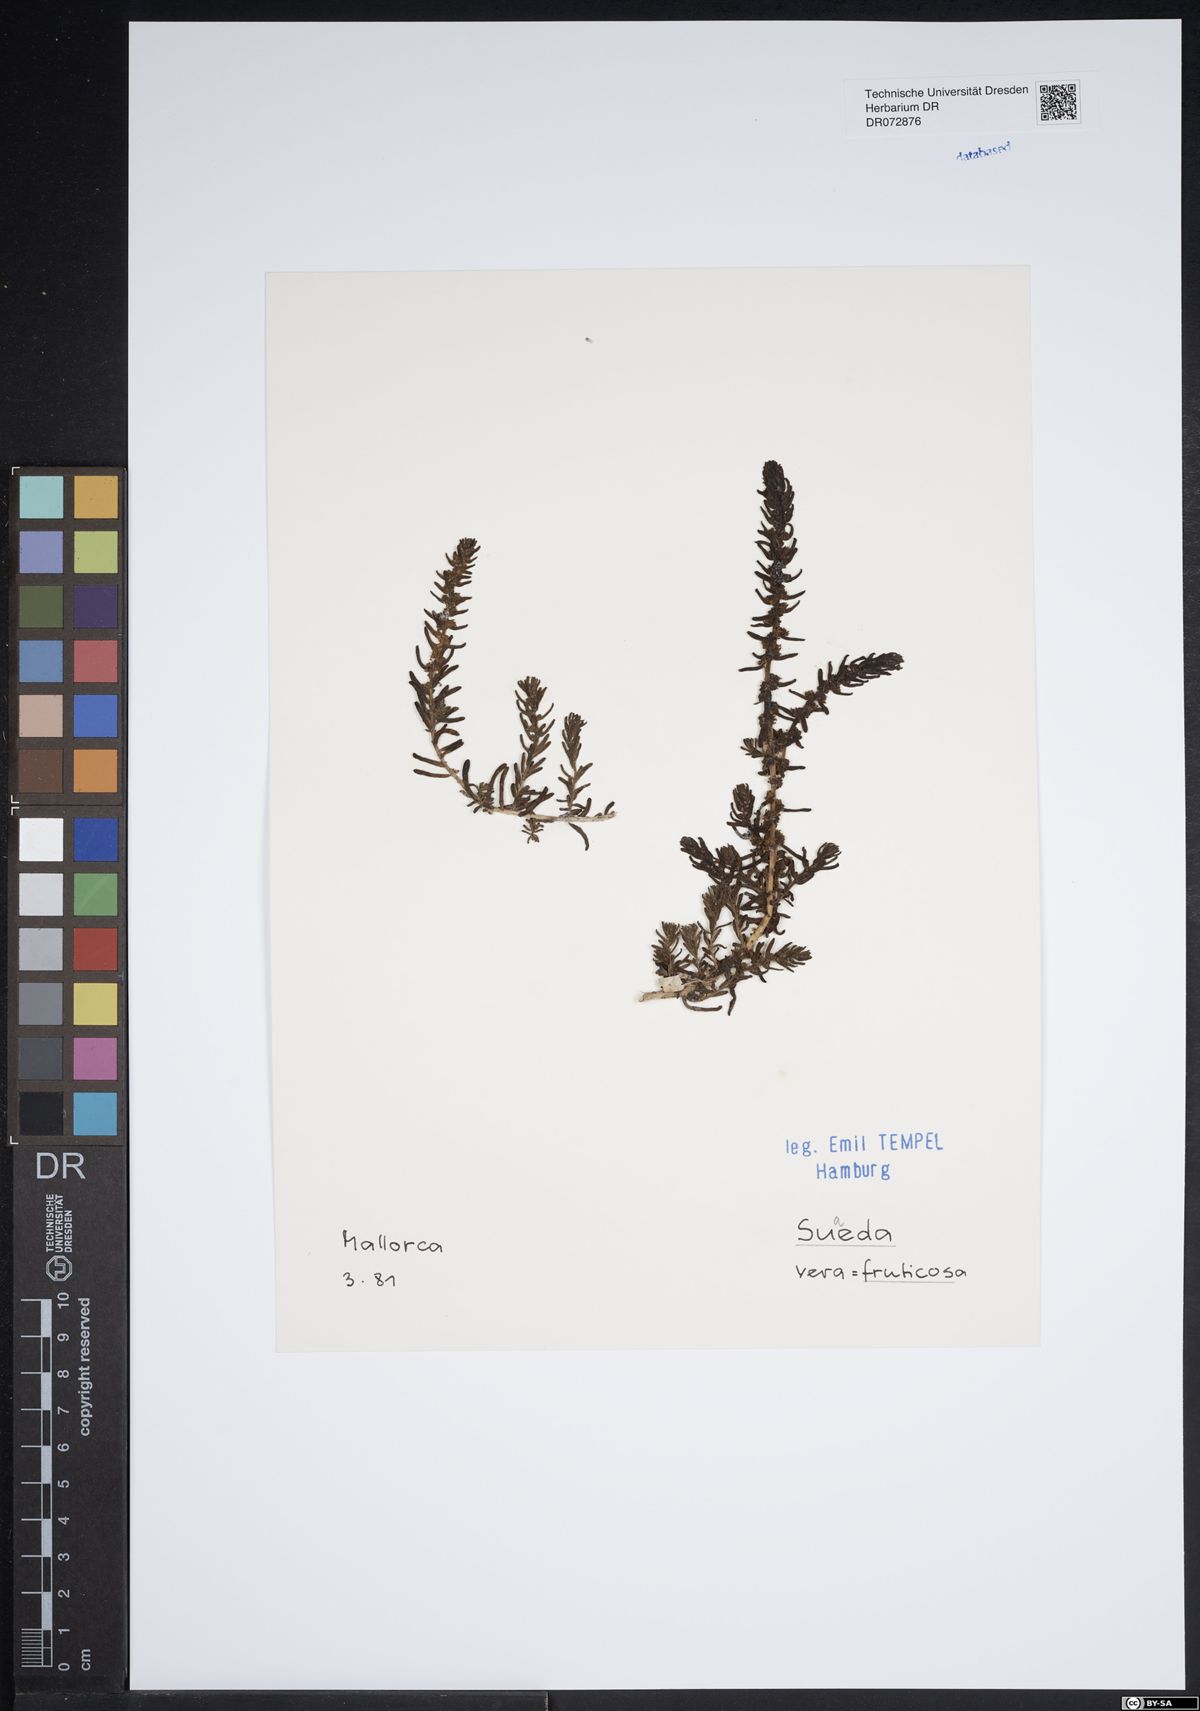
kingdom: Plantae
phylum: Tracheophyta
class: Magnoliopsida
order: Caryophyllales
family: Amaranthaceae
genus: Suaeda
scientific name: Suaeda fruticosa
